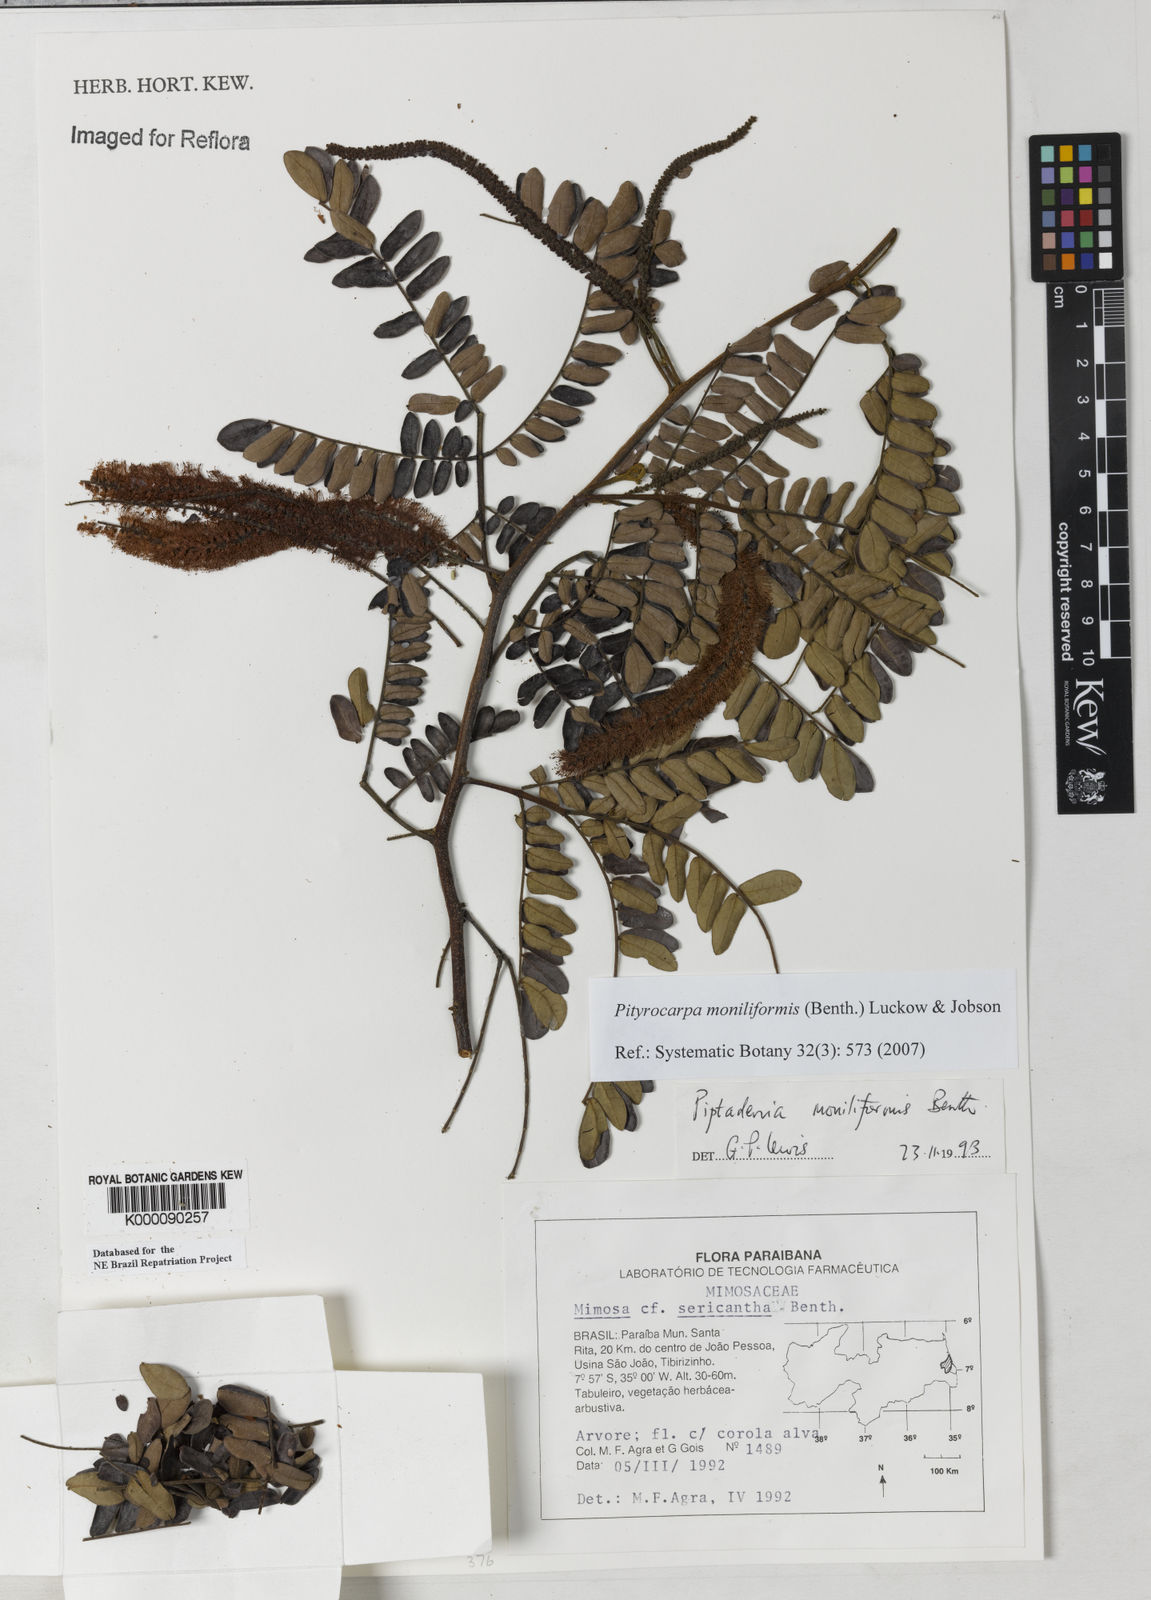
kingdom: Plantae
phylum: Tracheophyta
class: Magnoliopsida
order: Fabales
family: Fabaceae
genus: Pityrocarpa
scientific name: Pityrocarpa moniliformis
